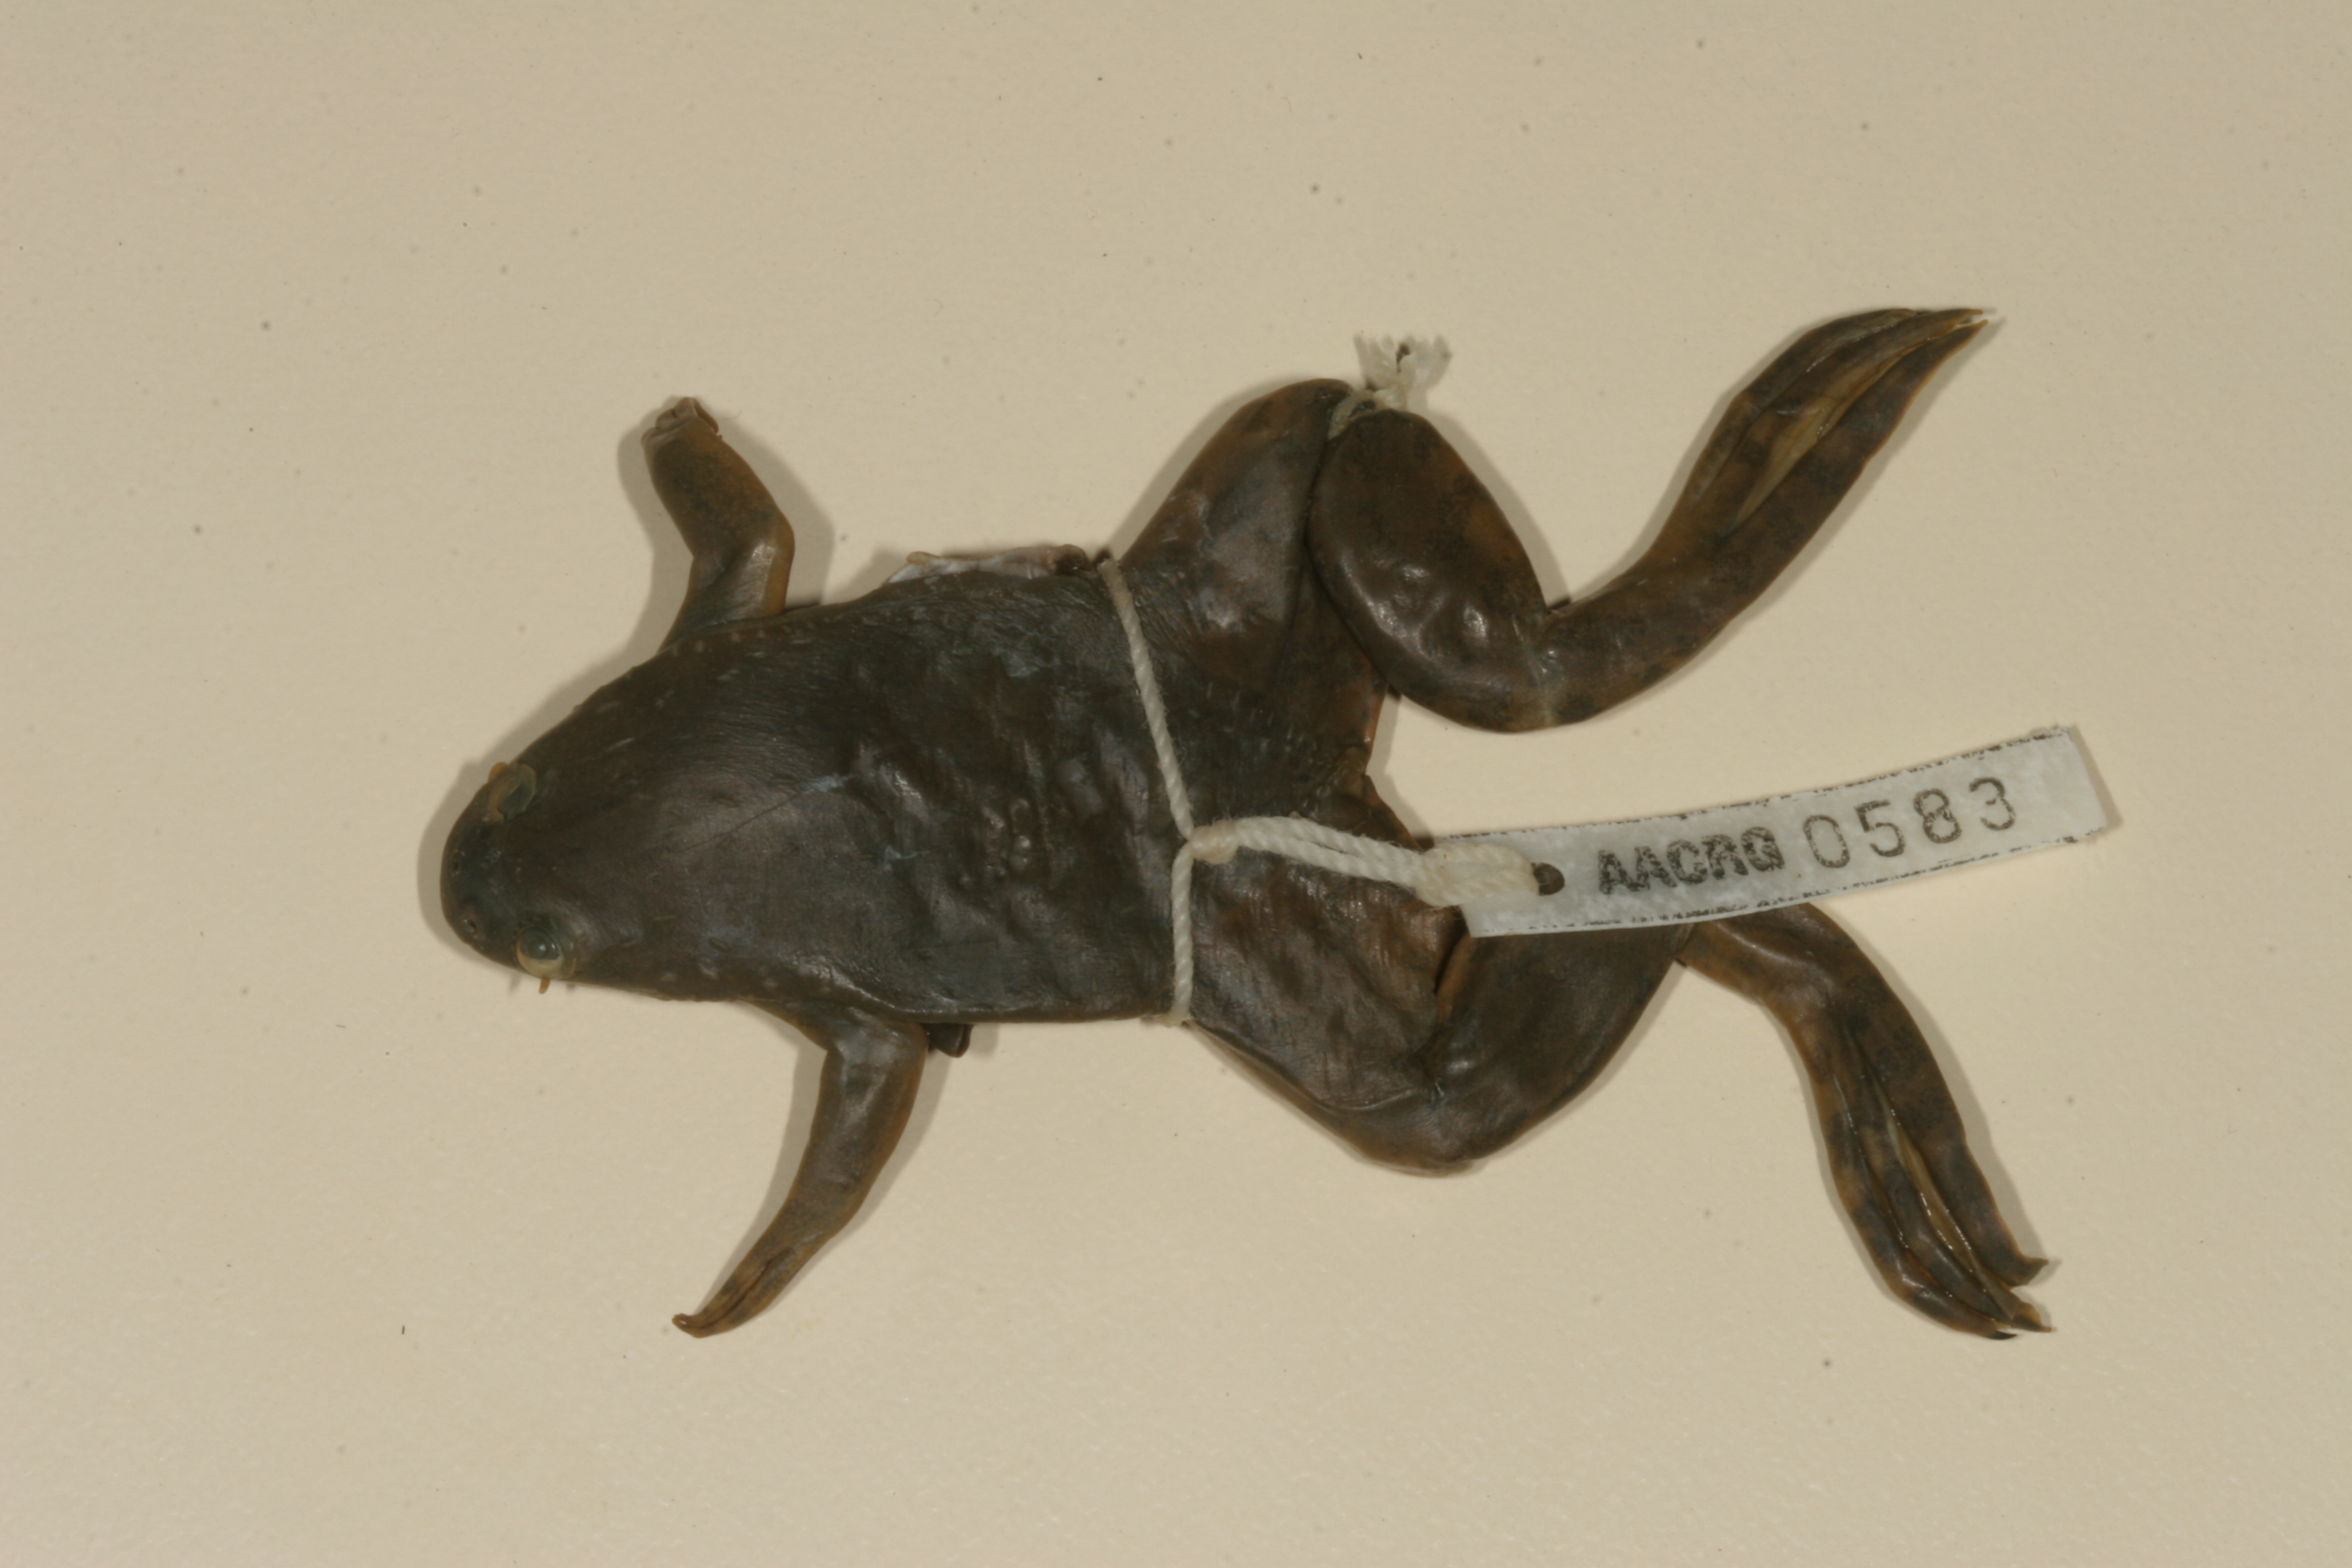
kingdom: Animalia
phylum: Chordata
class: Amphibia
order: Anura
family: Pipidae
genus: Xenopus
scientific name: Xenopus muelleri
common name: Muller's clawed frog
